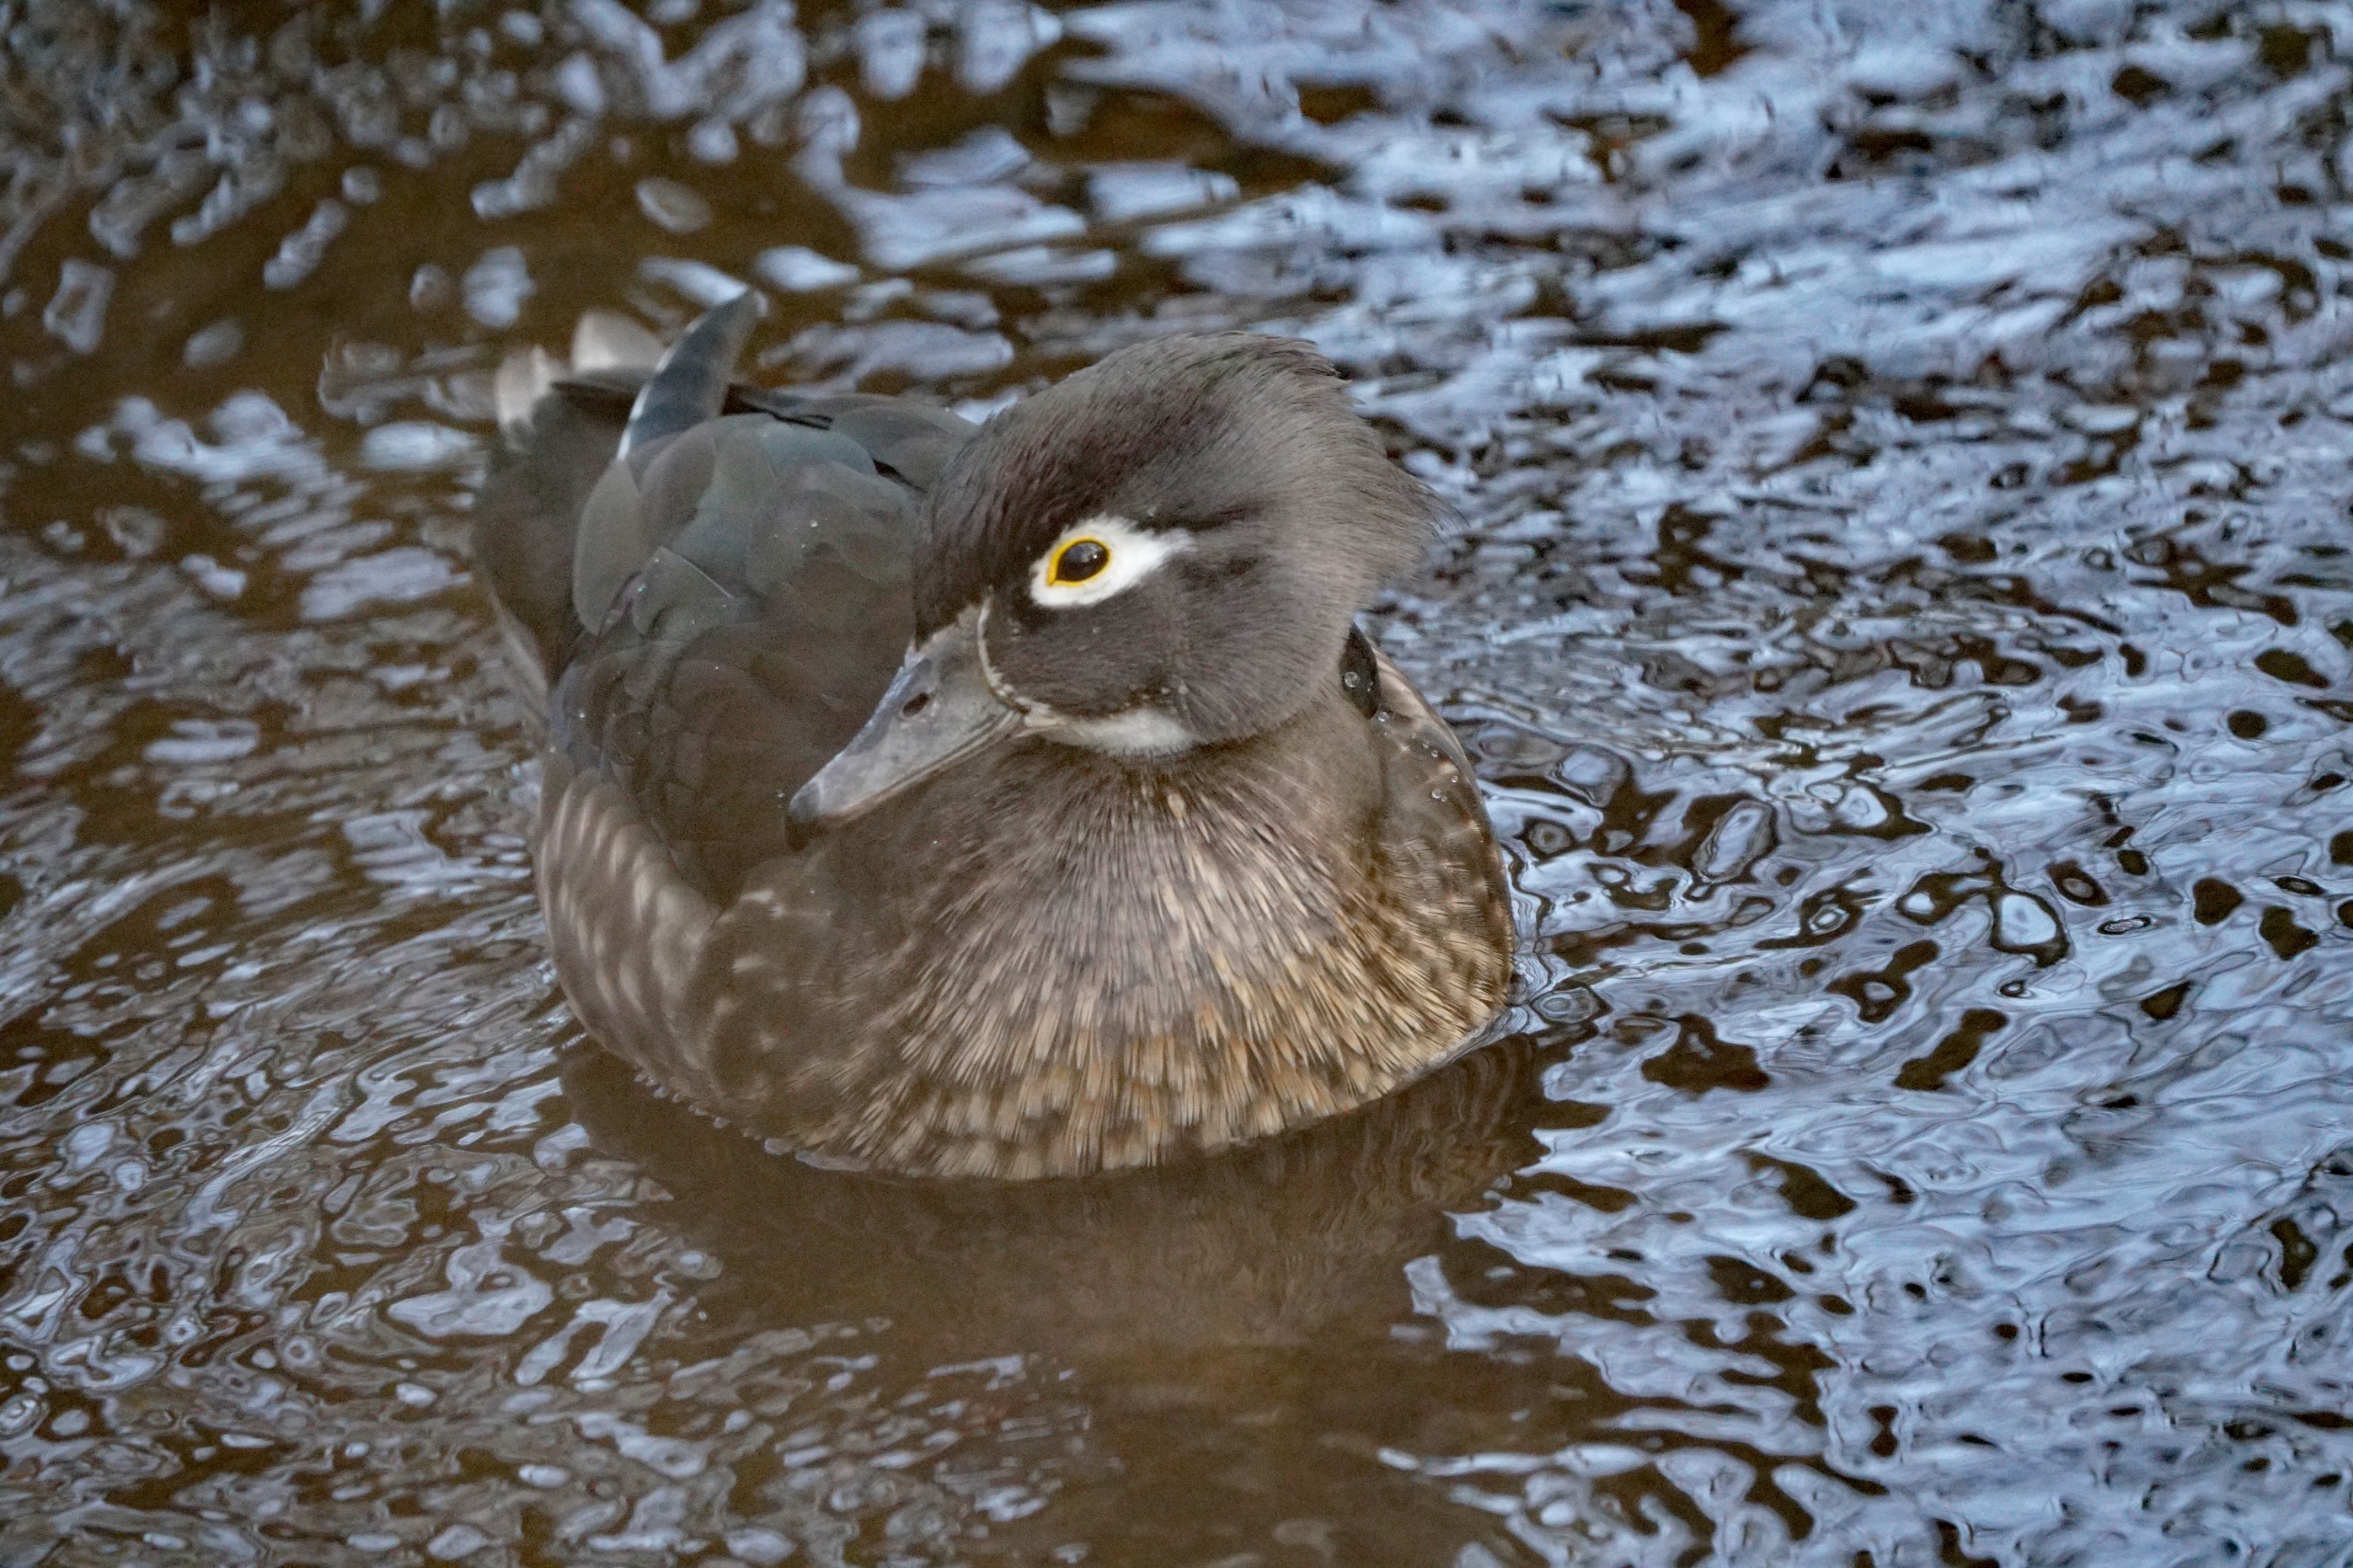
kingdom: Animalia
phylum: Chordata
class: Aves
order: Anseriformes
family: Anatidae
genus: Aix
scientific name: Aix sponsa
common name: Brudeand
